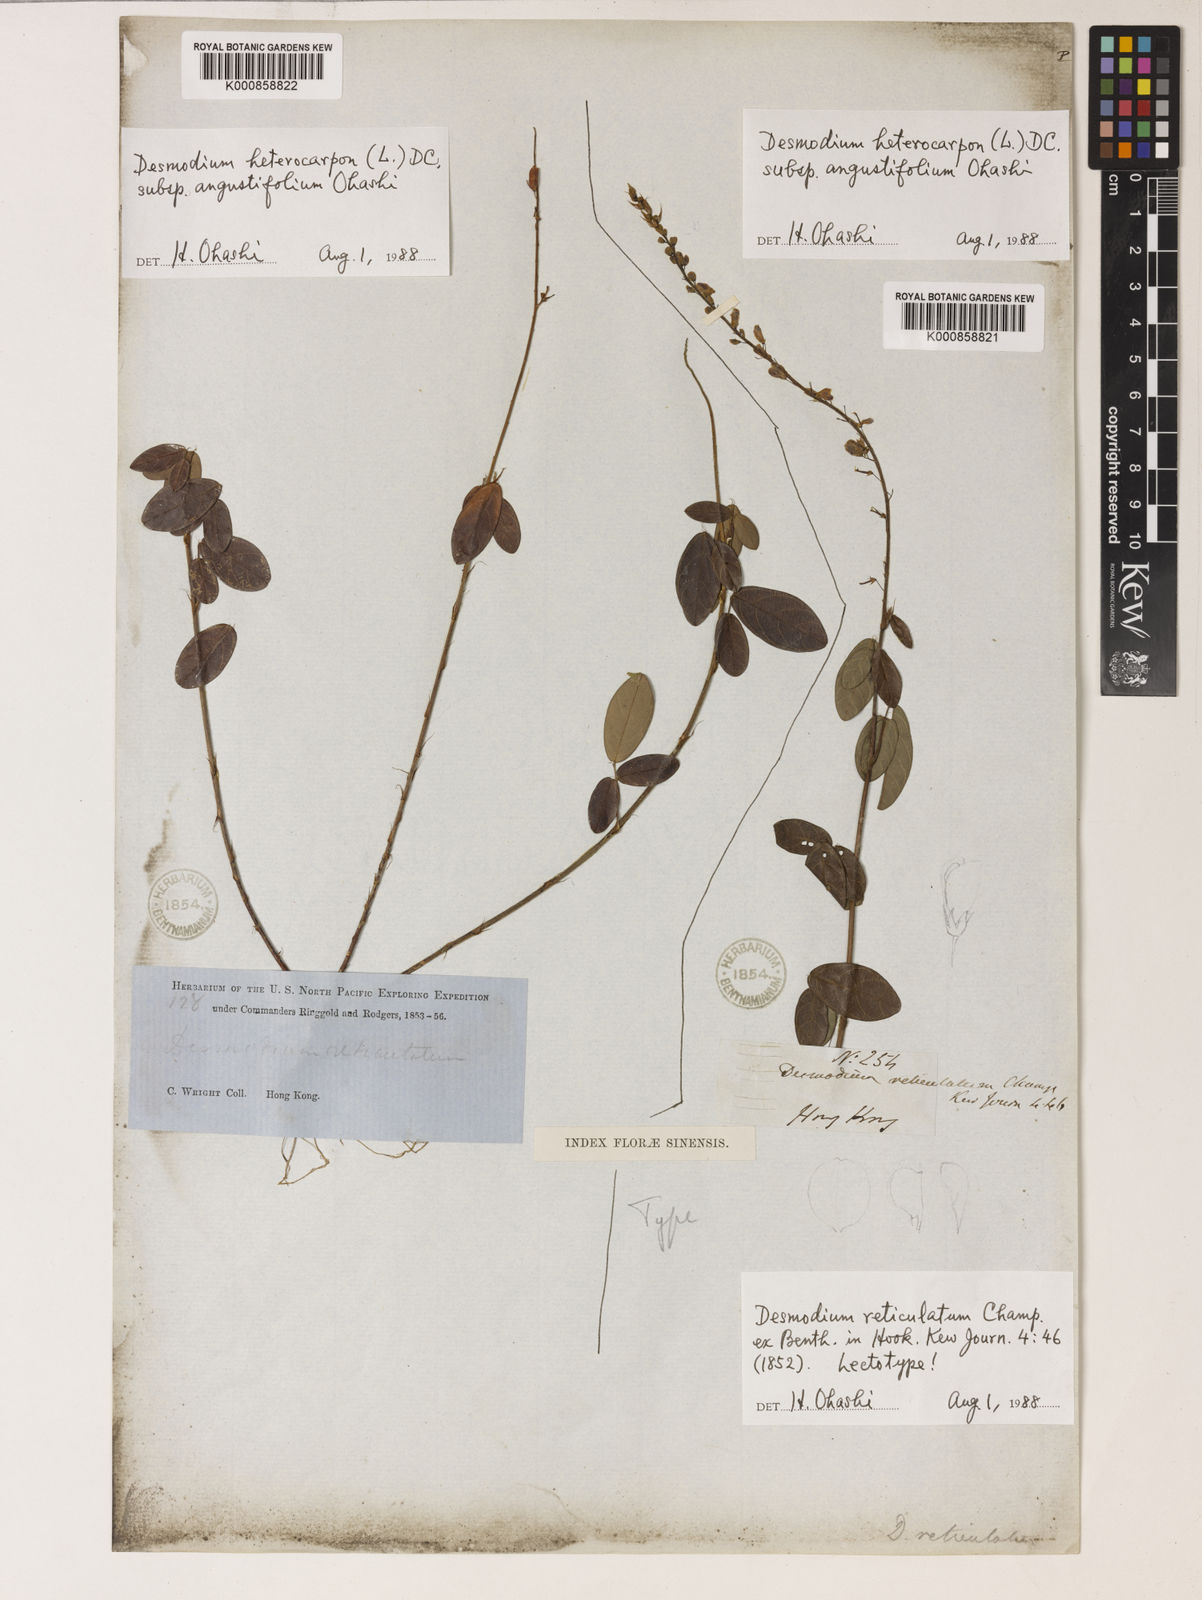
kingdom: Plantae
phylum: Tracheophyta
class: Magnoliopsida
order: Fabales
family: Fabaceae
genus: Grona
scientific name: Grona reticulata
